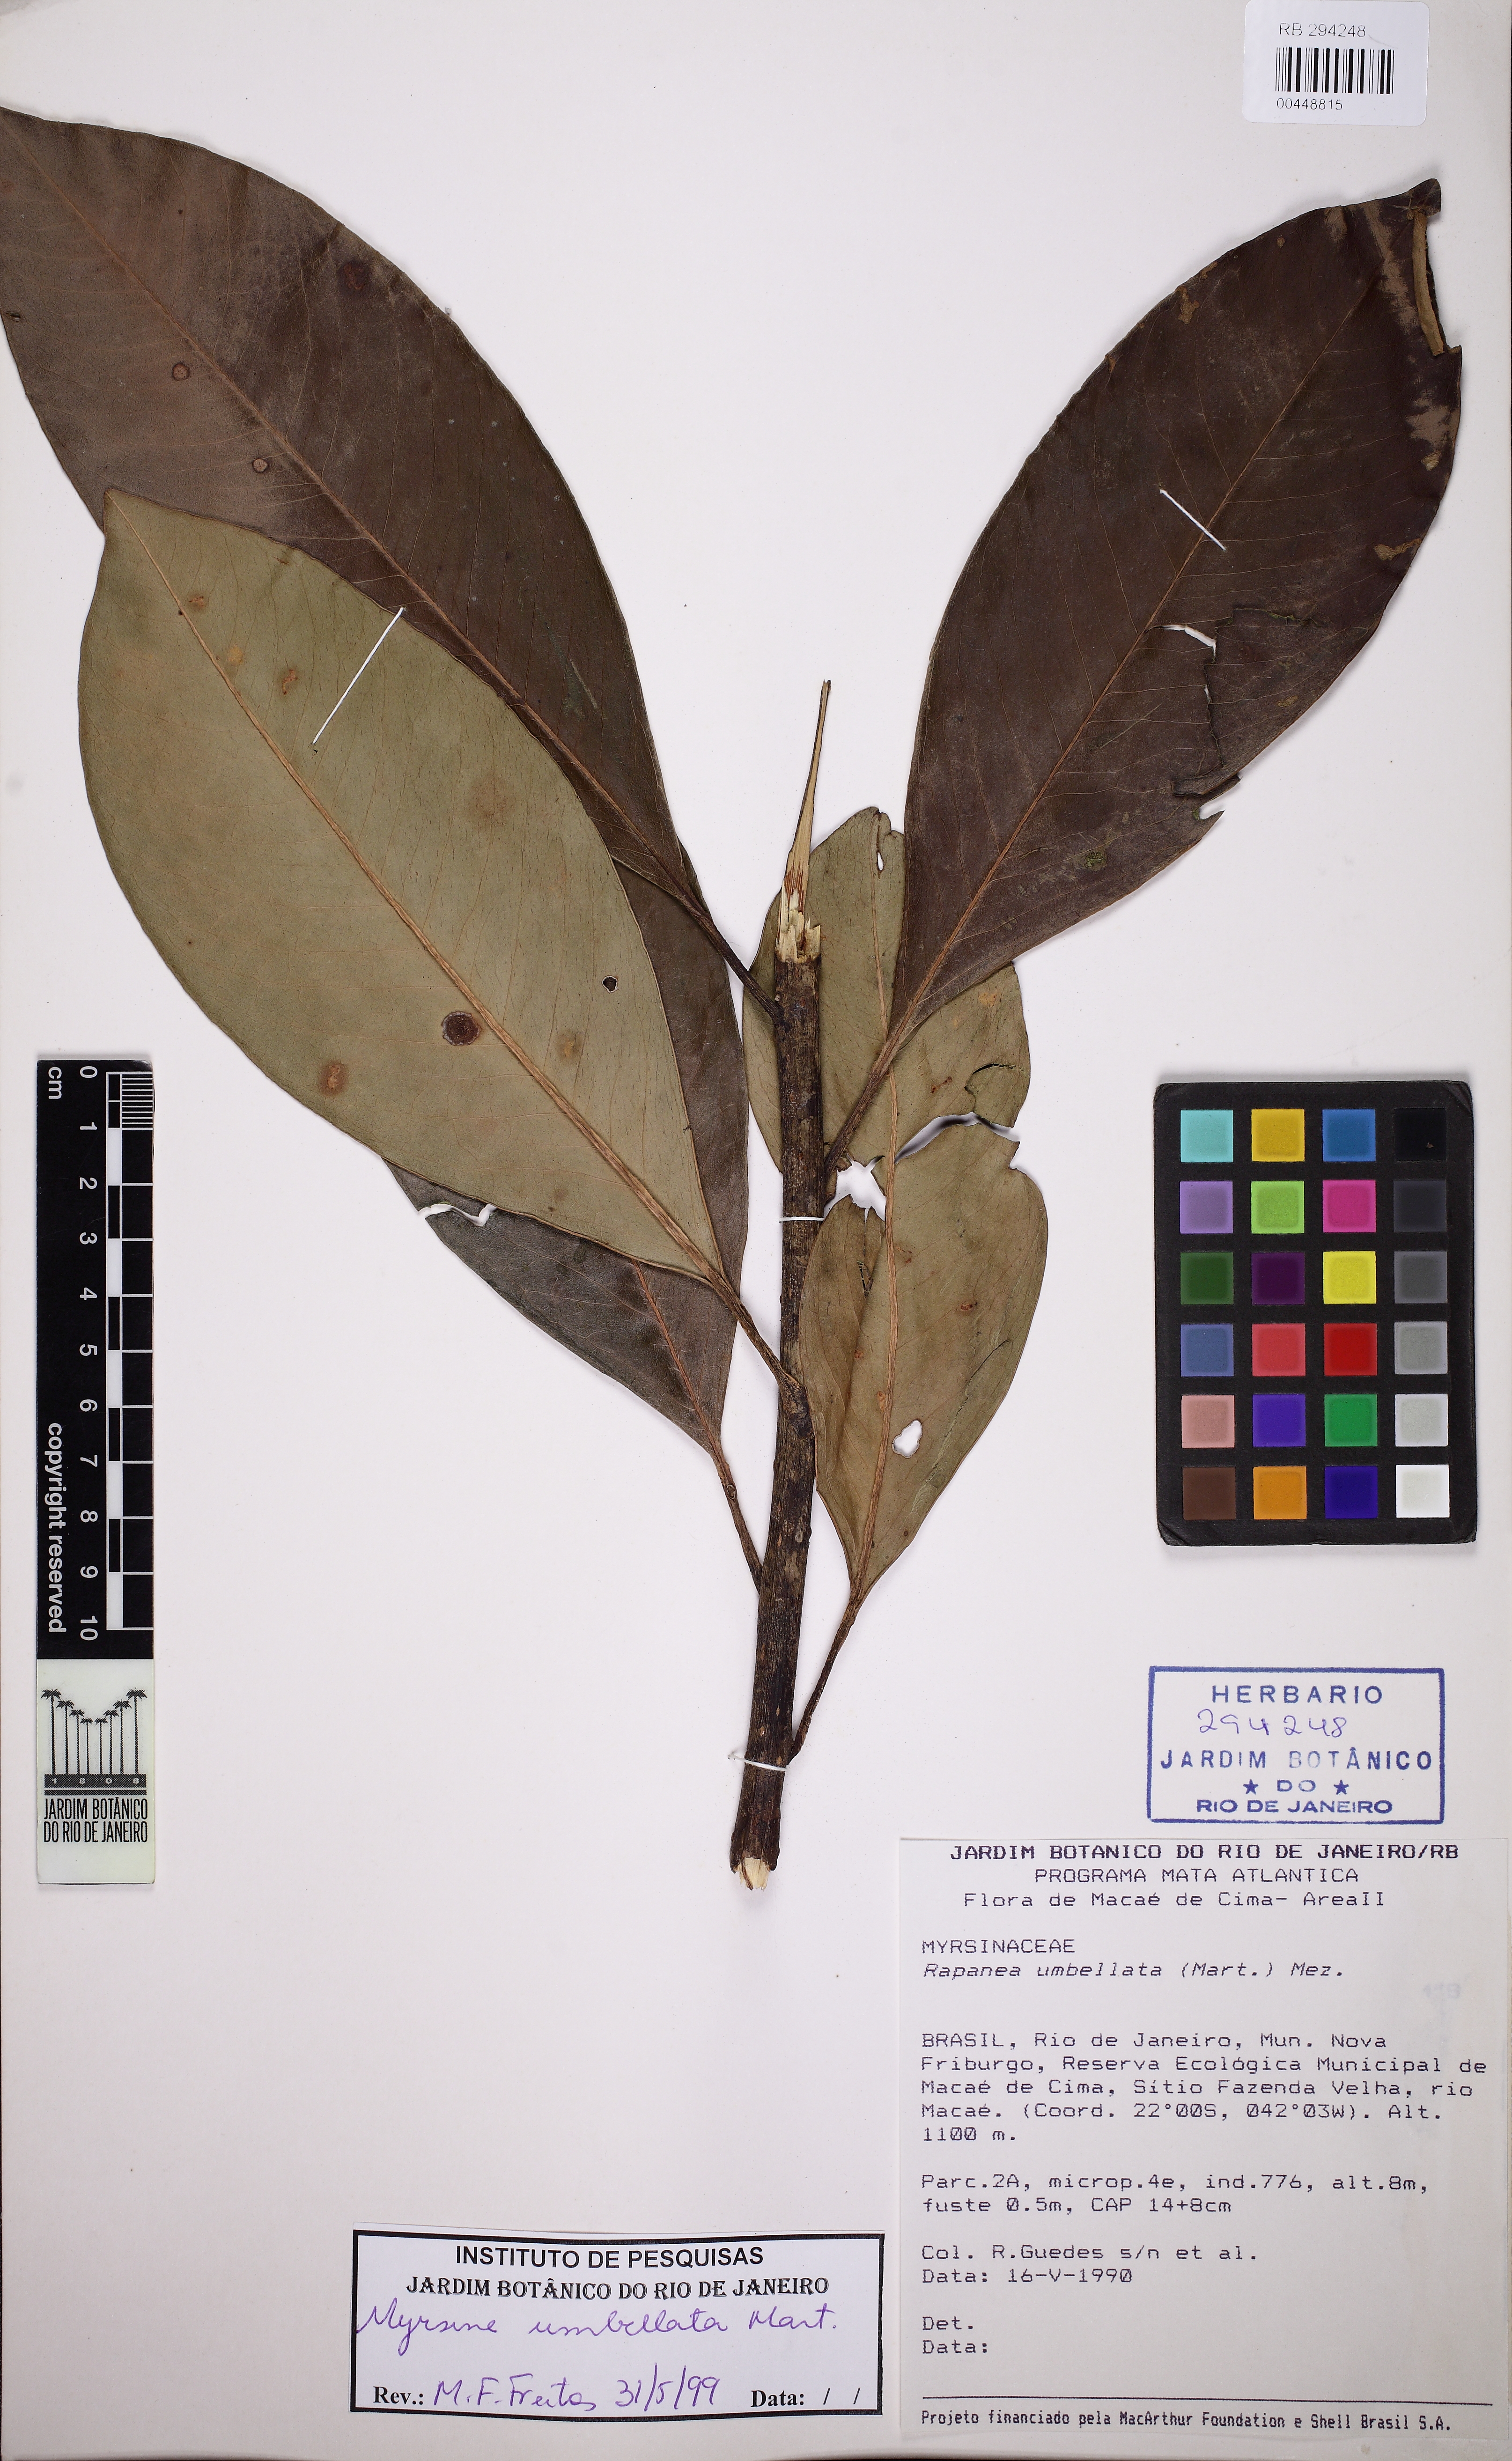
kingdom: Plantae
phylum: Tracheophyta
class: Magnoliopsida
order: Ericales
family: Primulaceae
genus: Myrsine
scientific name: Myrsine umbellata
